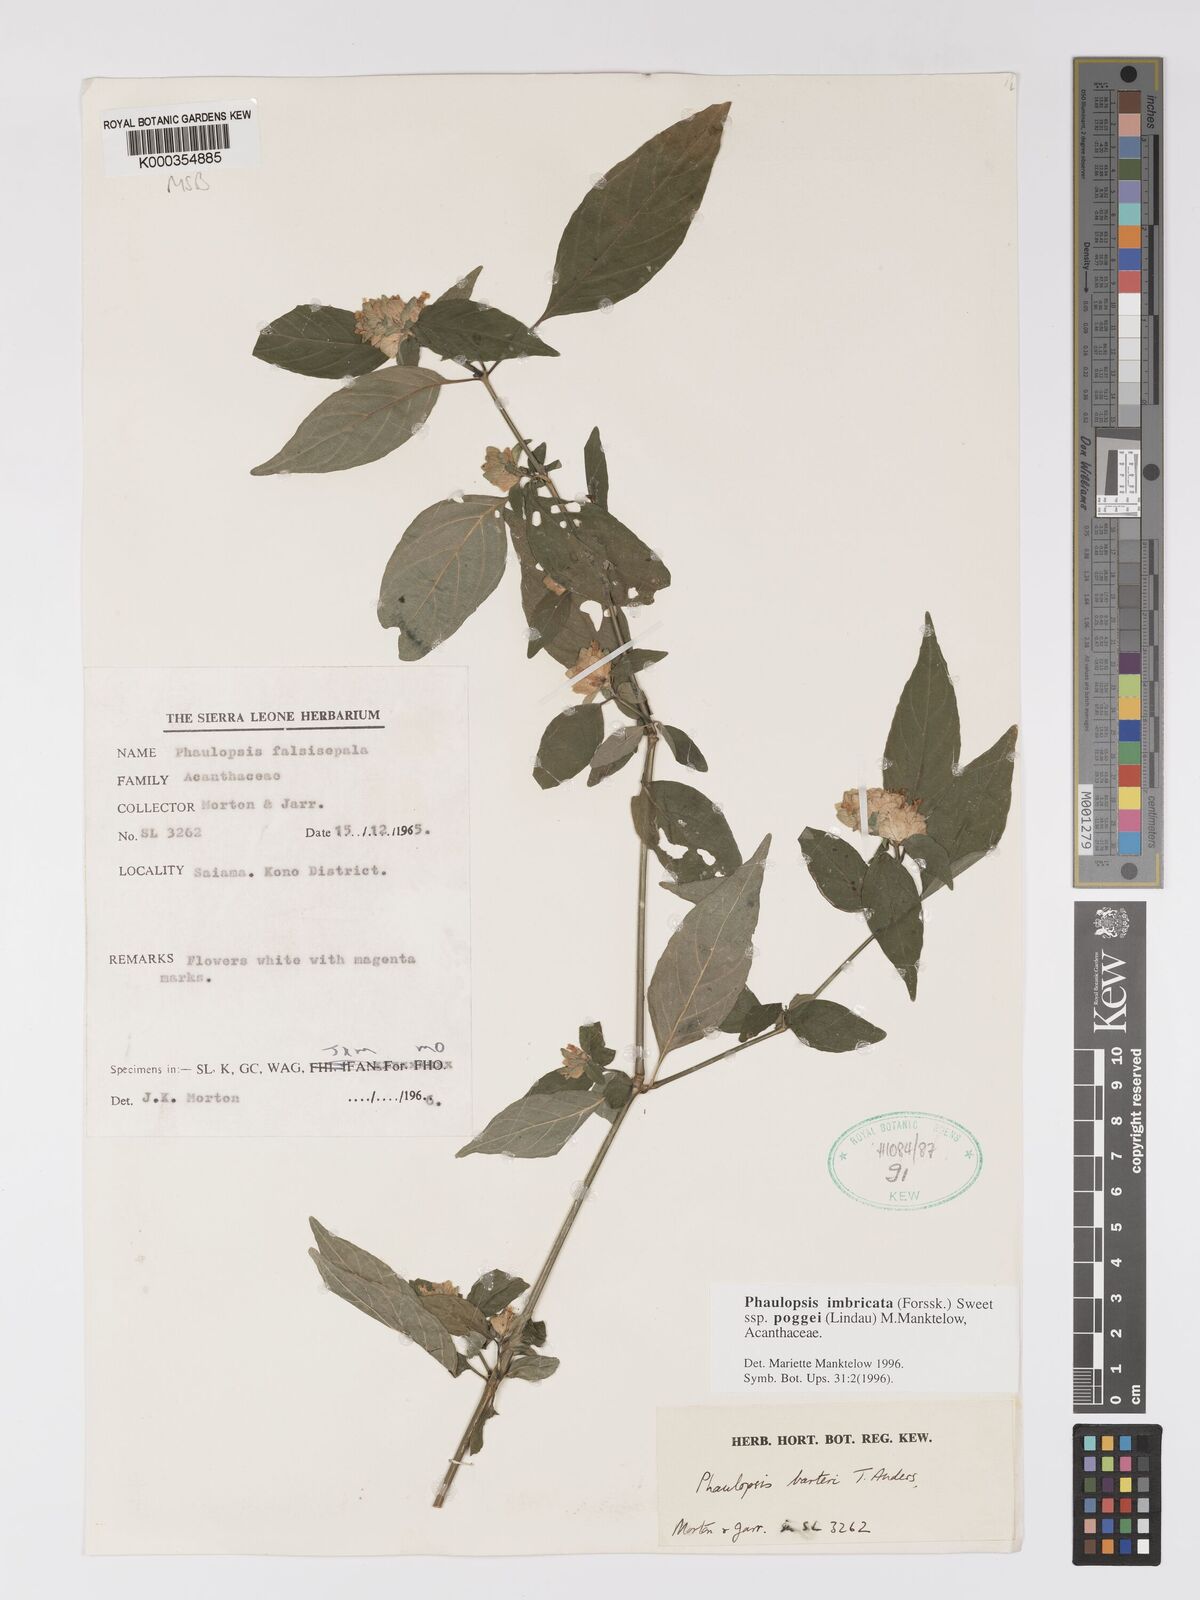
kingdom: Plantae
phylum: Tracheophyta
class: Magnoliopsida
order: Lamiales
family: Acanthaceae
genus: Phaulopsis
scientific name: Phaulopsis imbricata
